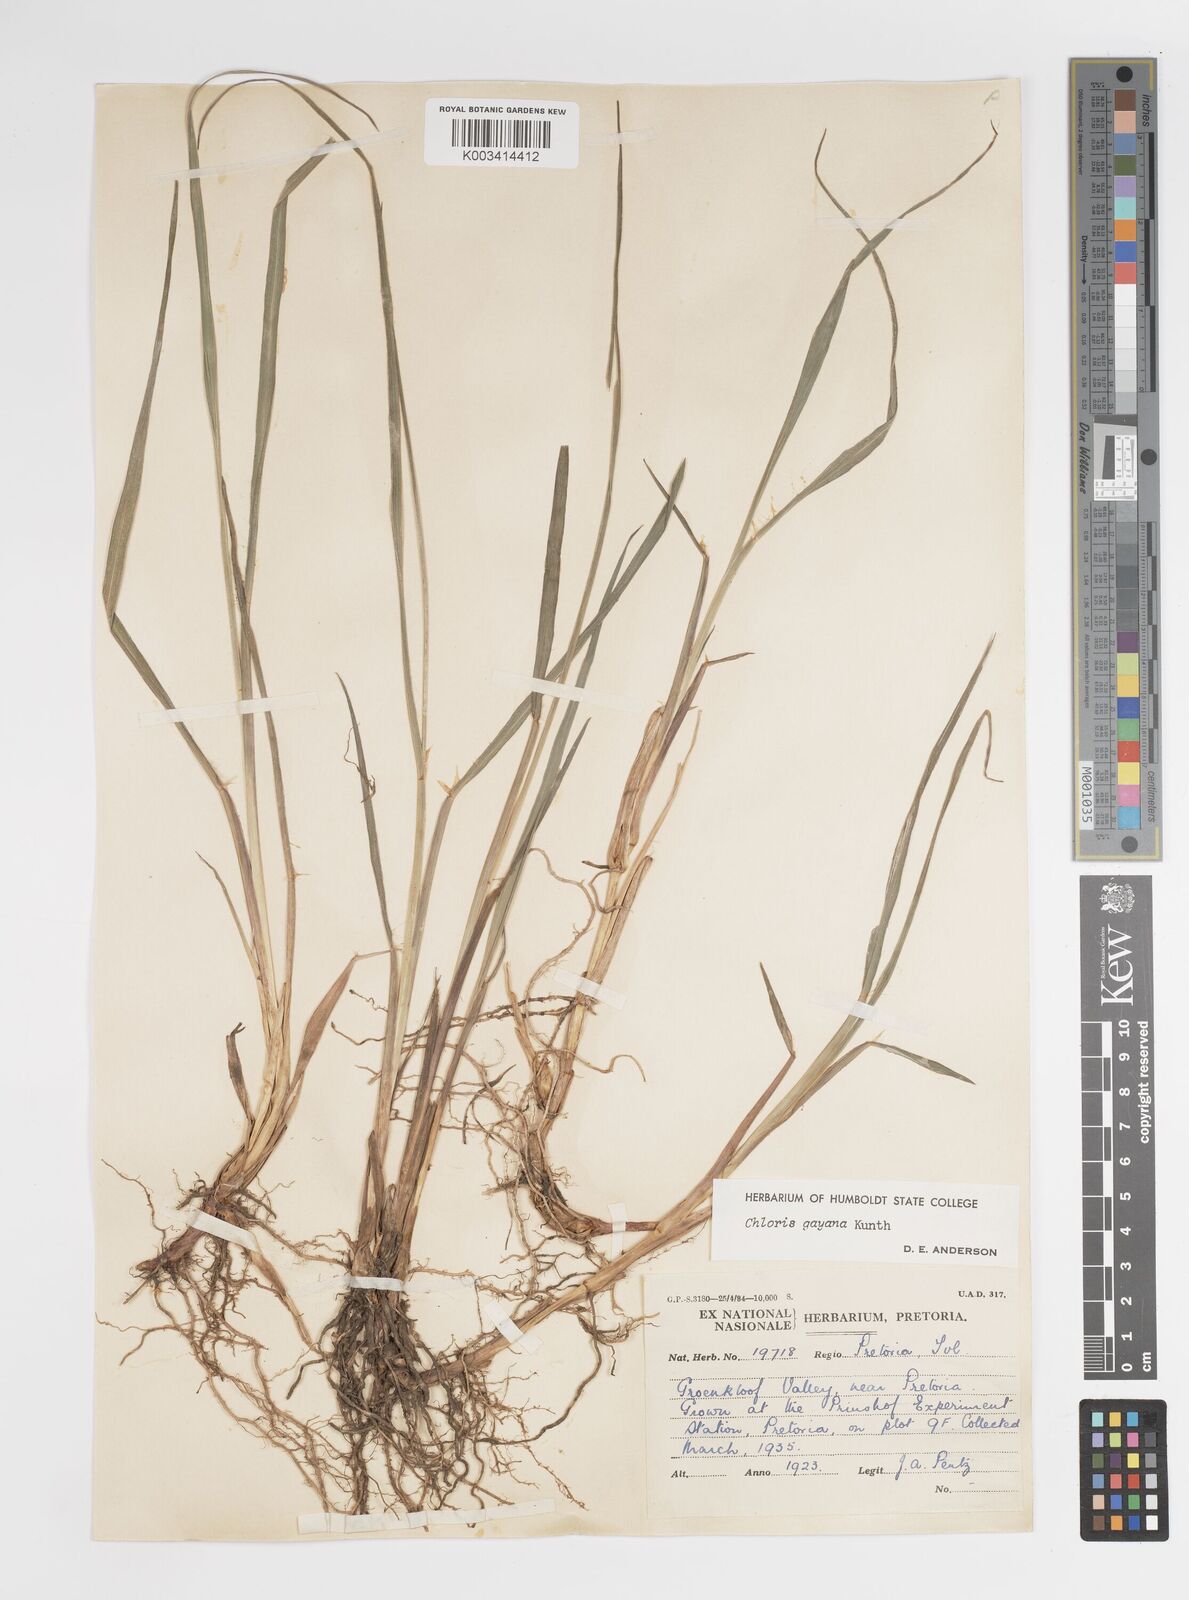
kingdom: Plantae
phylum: Tracheophyta
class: Liliopsida
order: Poales
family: Poaceae
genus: Chloris
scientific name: Chloris gayana
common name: Rhodes grass
